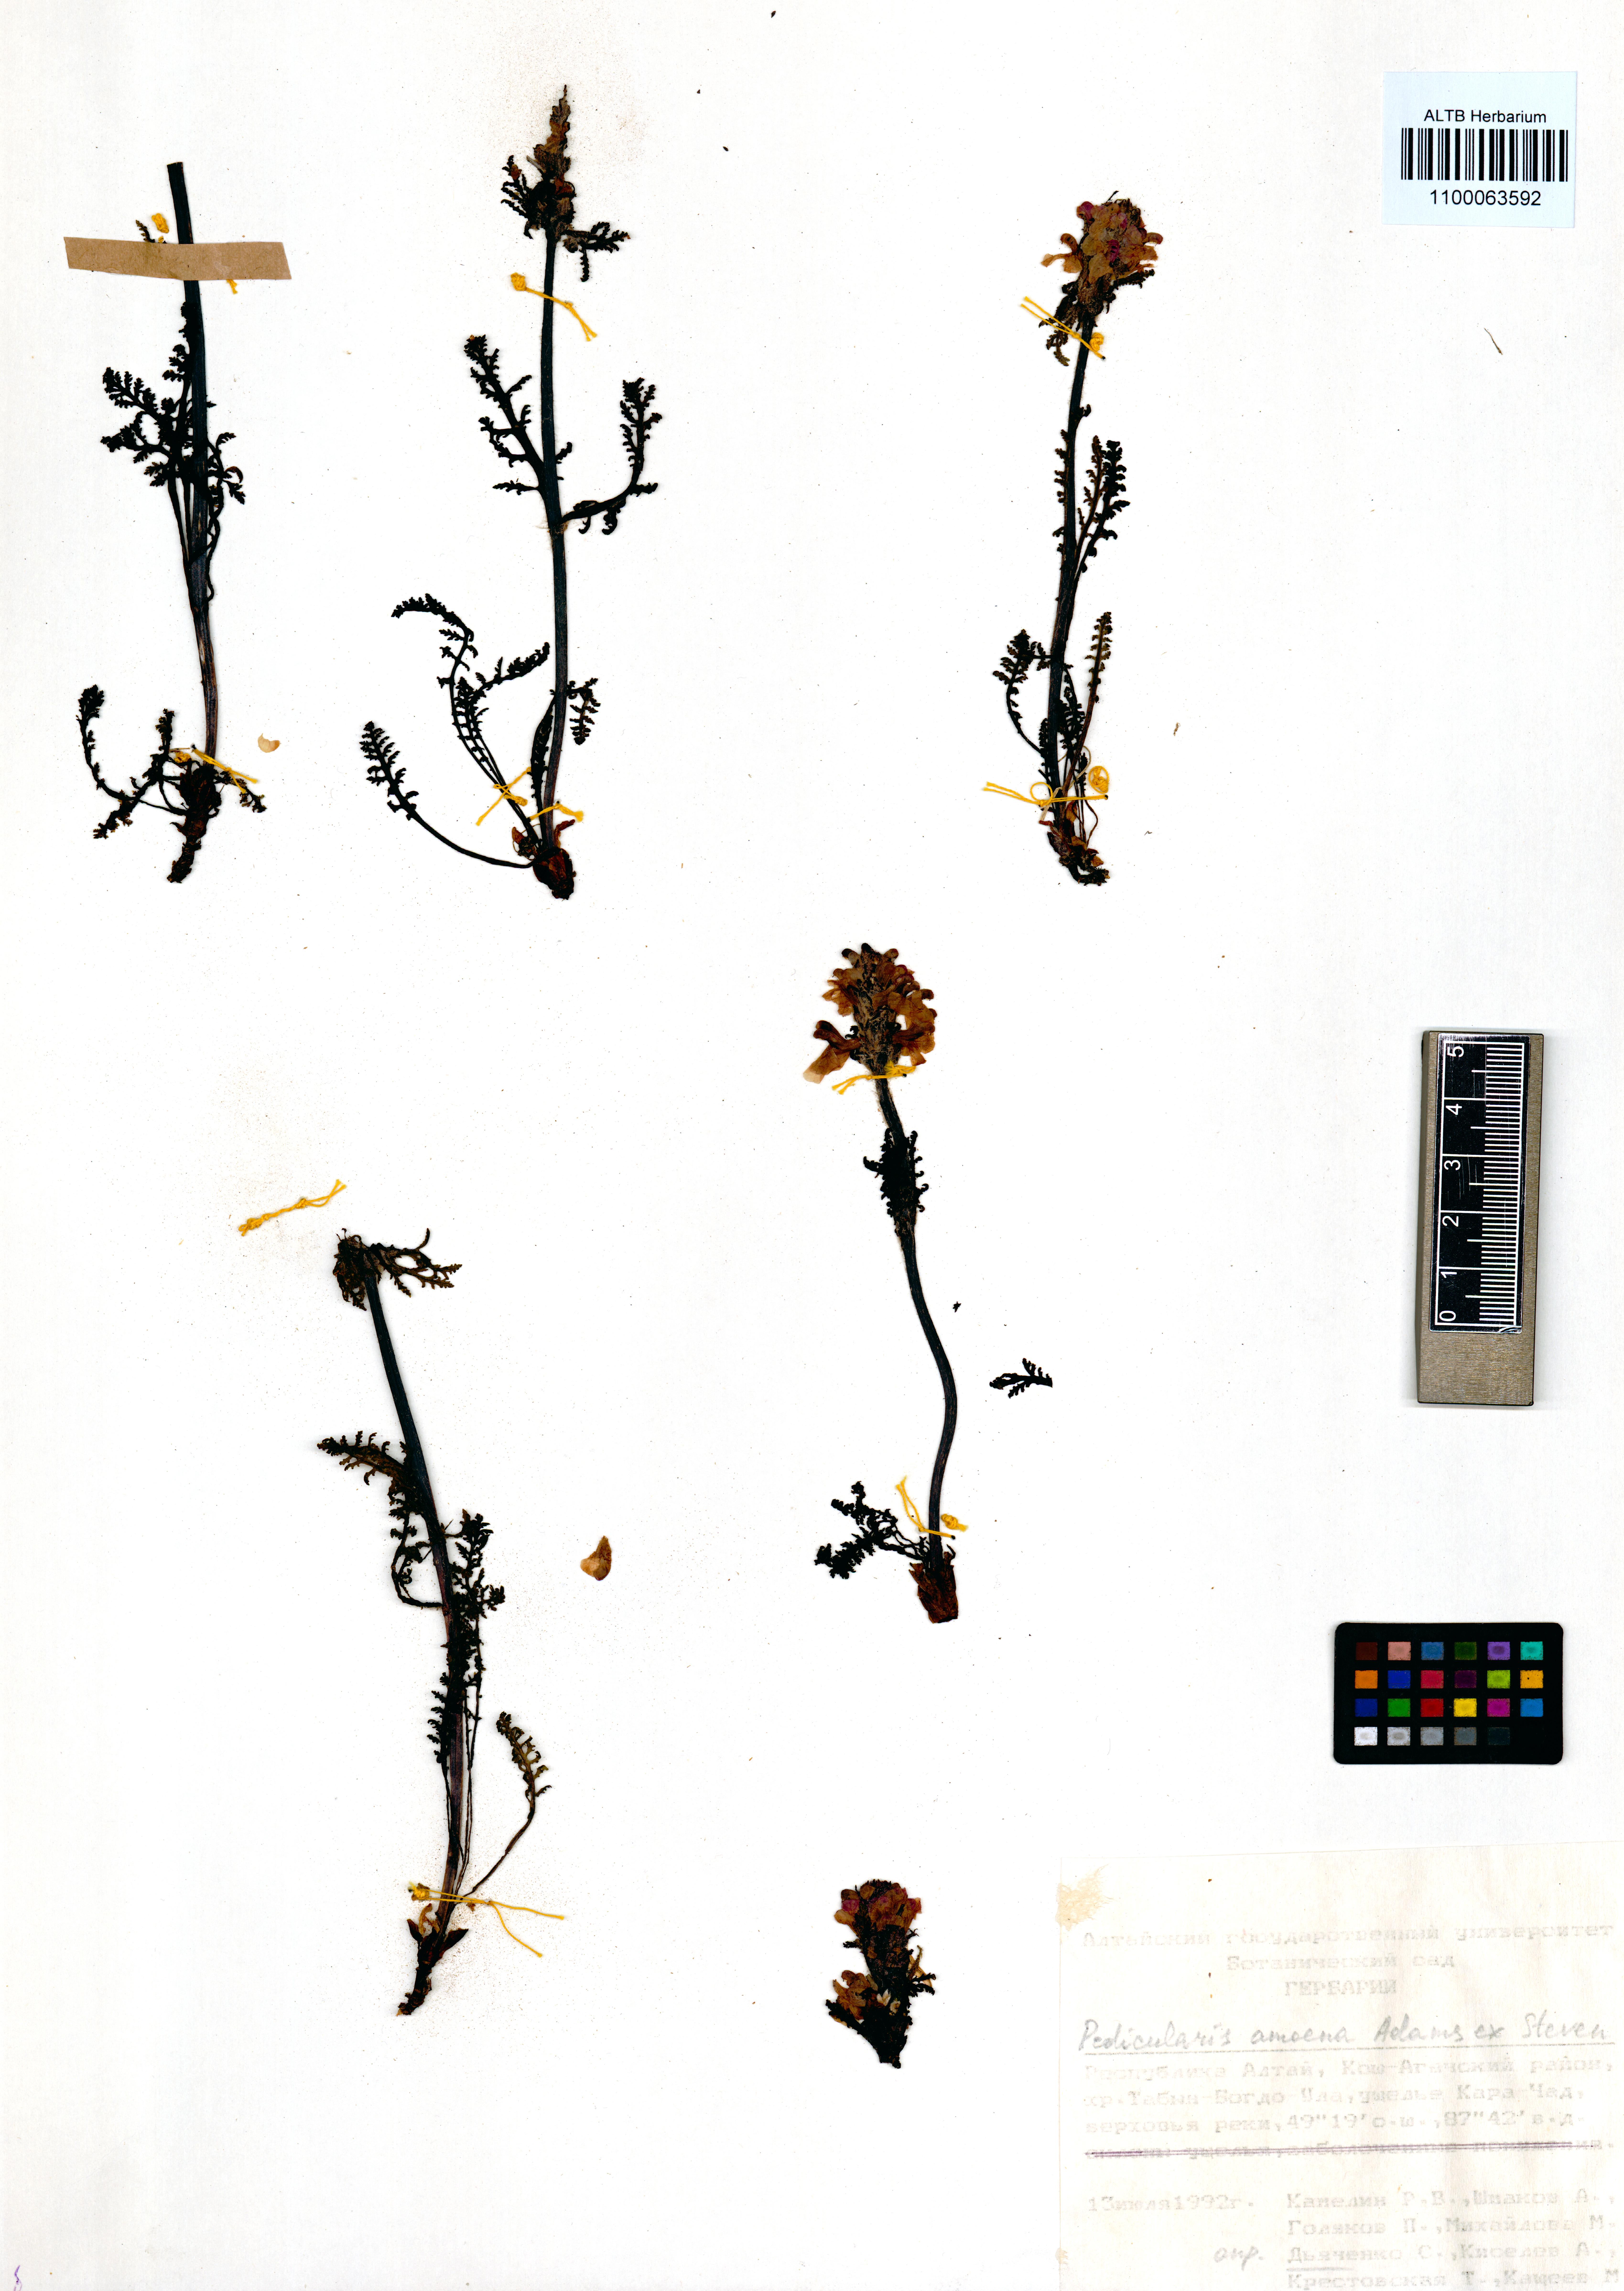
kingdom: Plantae
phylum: Tracheophyta
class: Magnoliopsida
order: Lamiales
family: Orobanchaceae
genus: Pedicularis
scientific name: Pedicularis amoena
